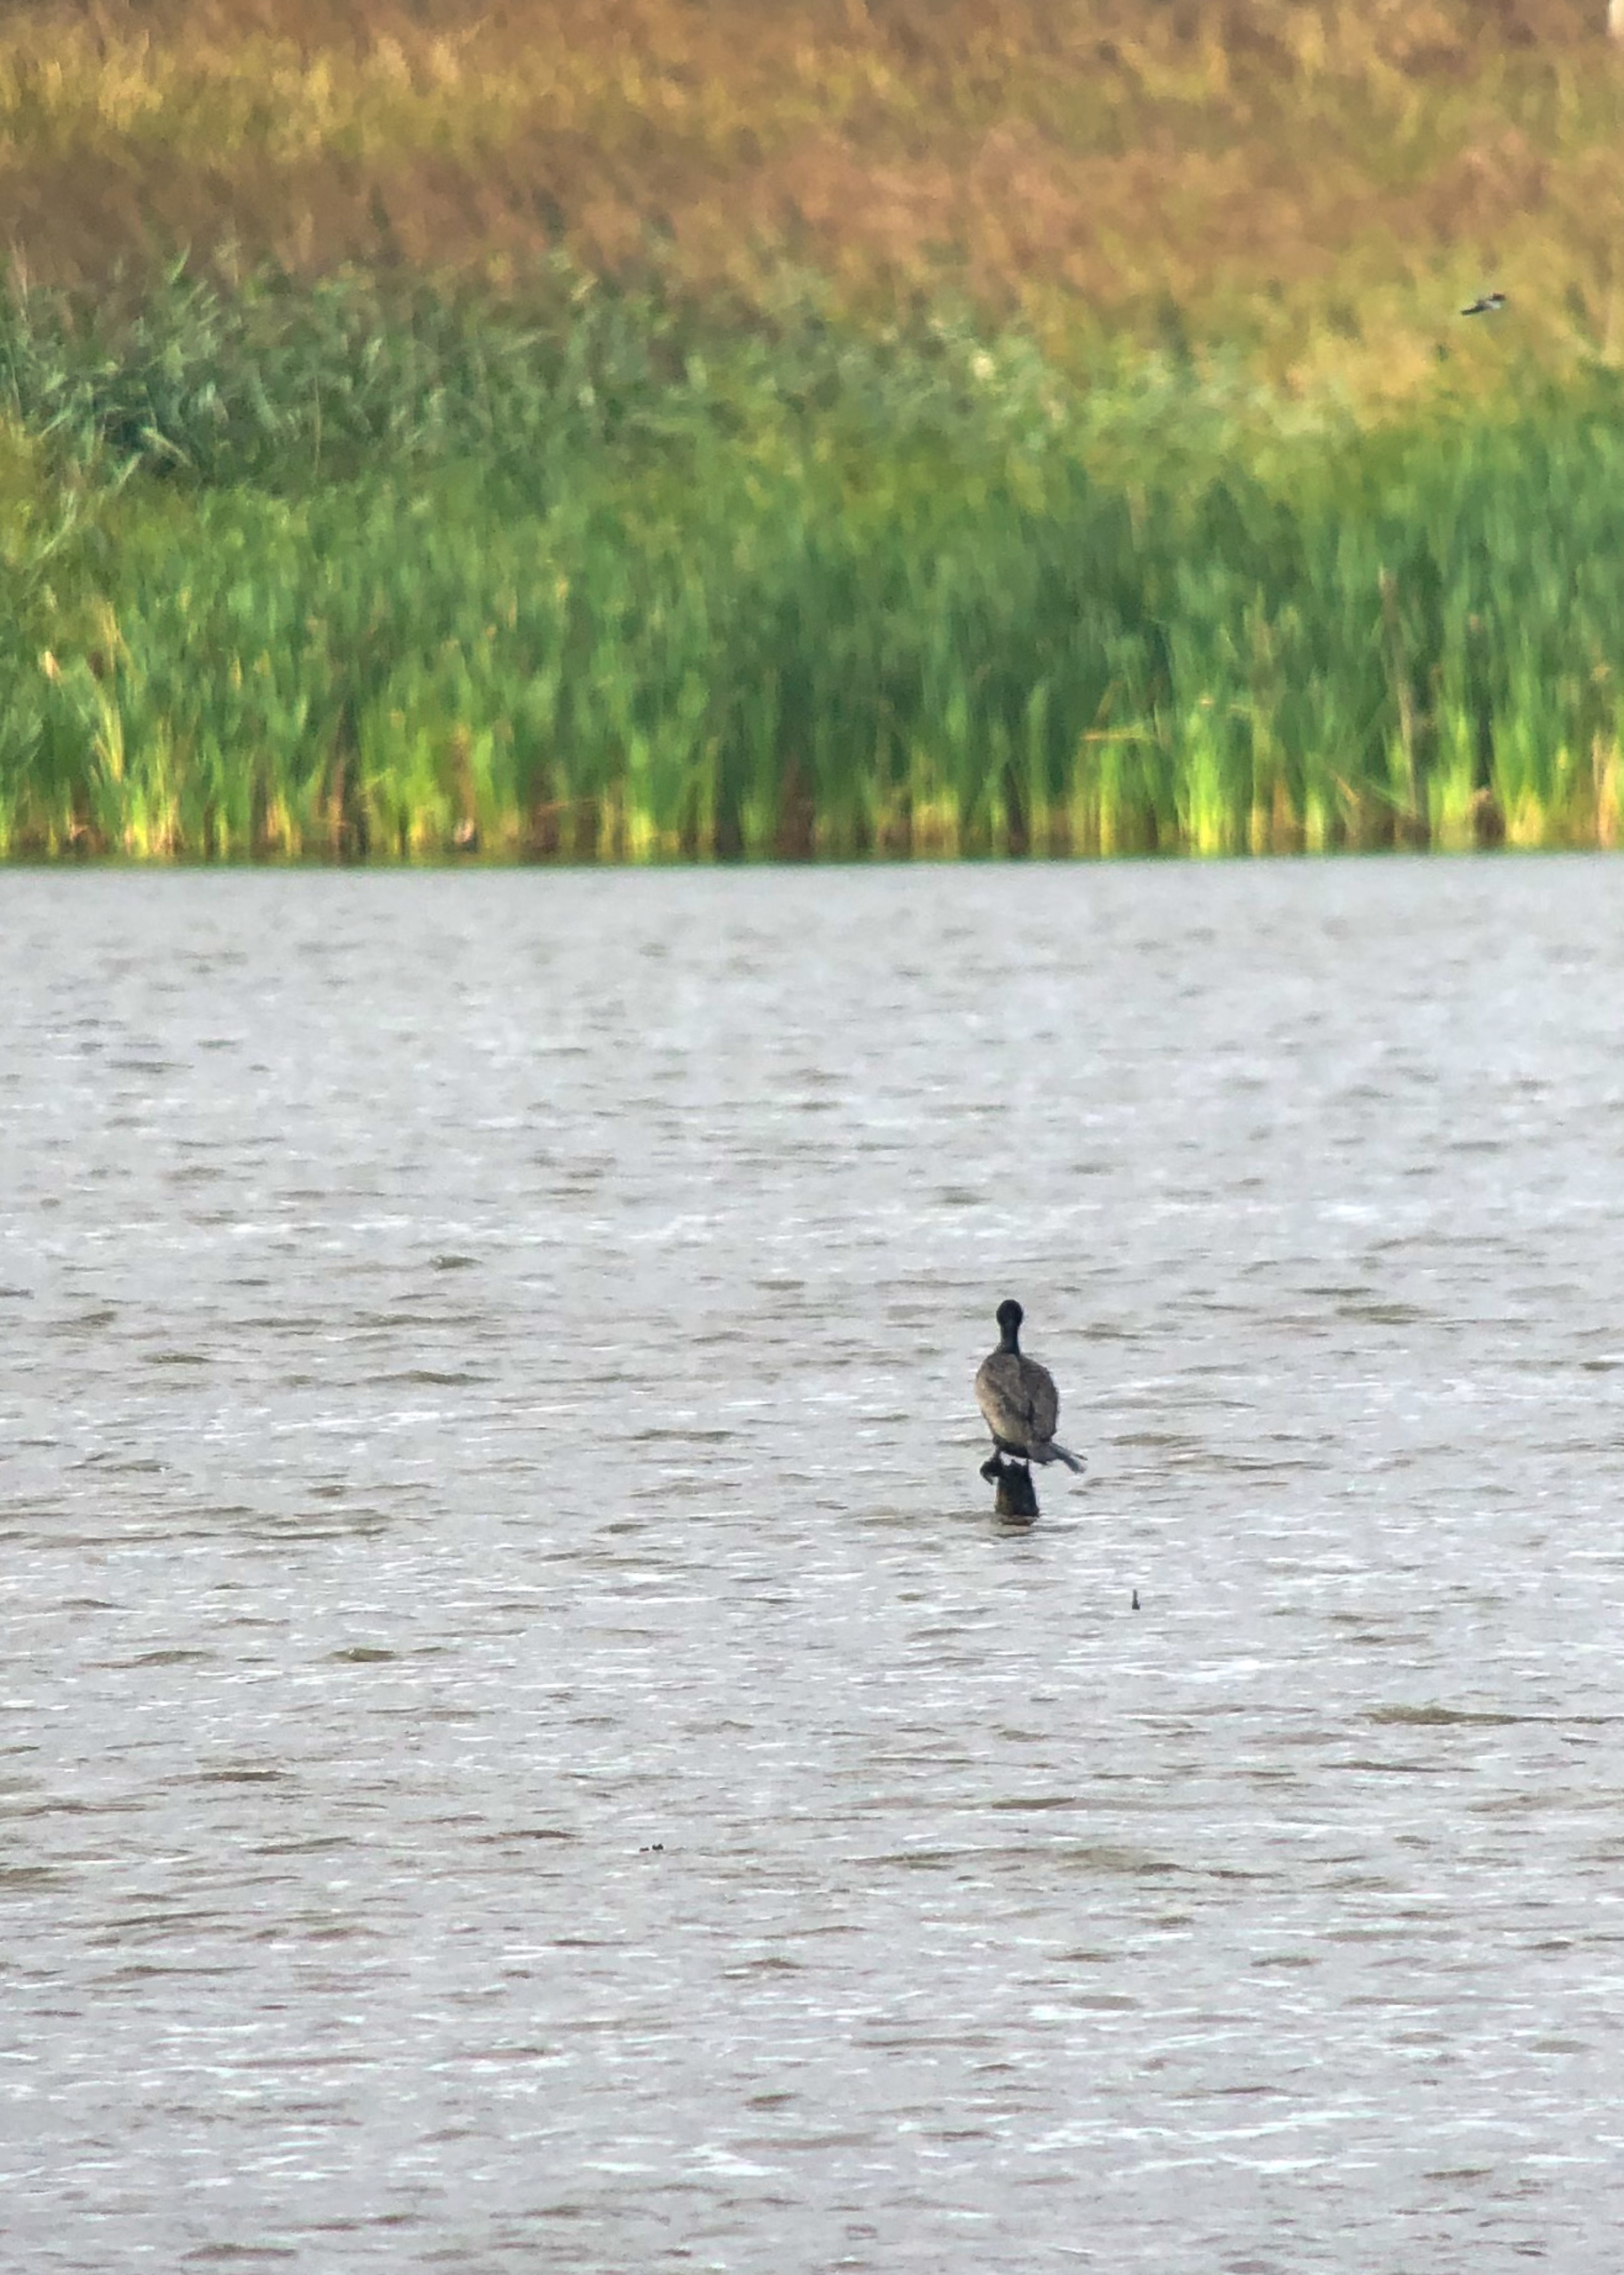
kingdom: Animalia
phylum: Chordata
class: Aves
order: Suliformes
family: Phalacrocoracidae
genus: Phalacrocorax
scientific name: Phalacrocorax carbo
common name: Skarv
